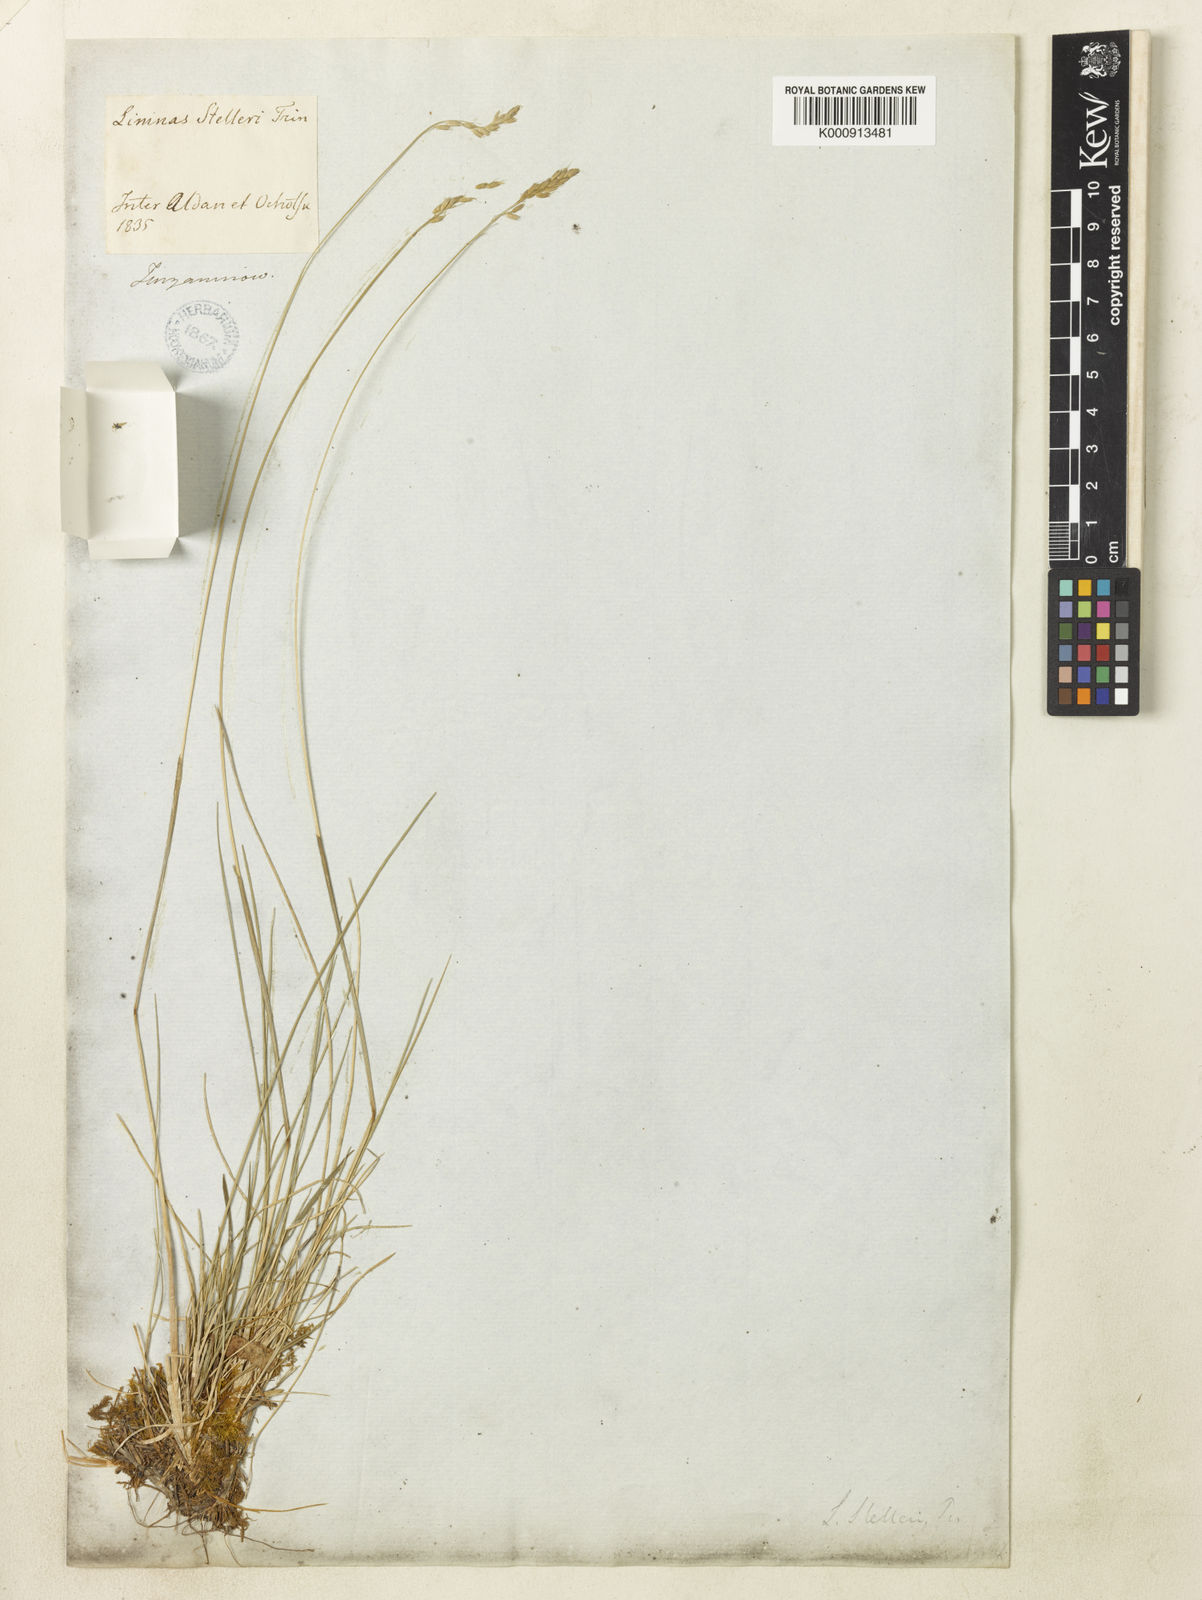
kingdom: Plantae
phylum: Tracheophyta
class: Liliopsida
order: Poales
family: Poaceae
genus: Limnas
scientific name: Limnas stelleri
